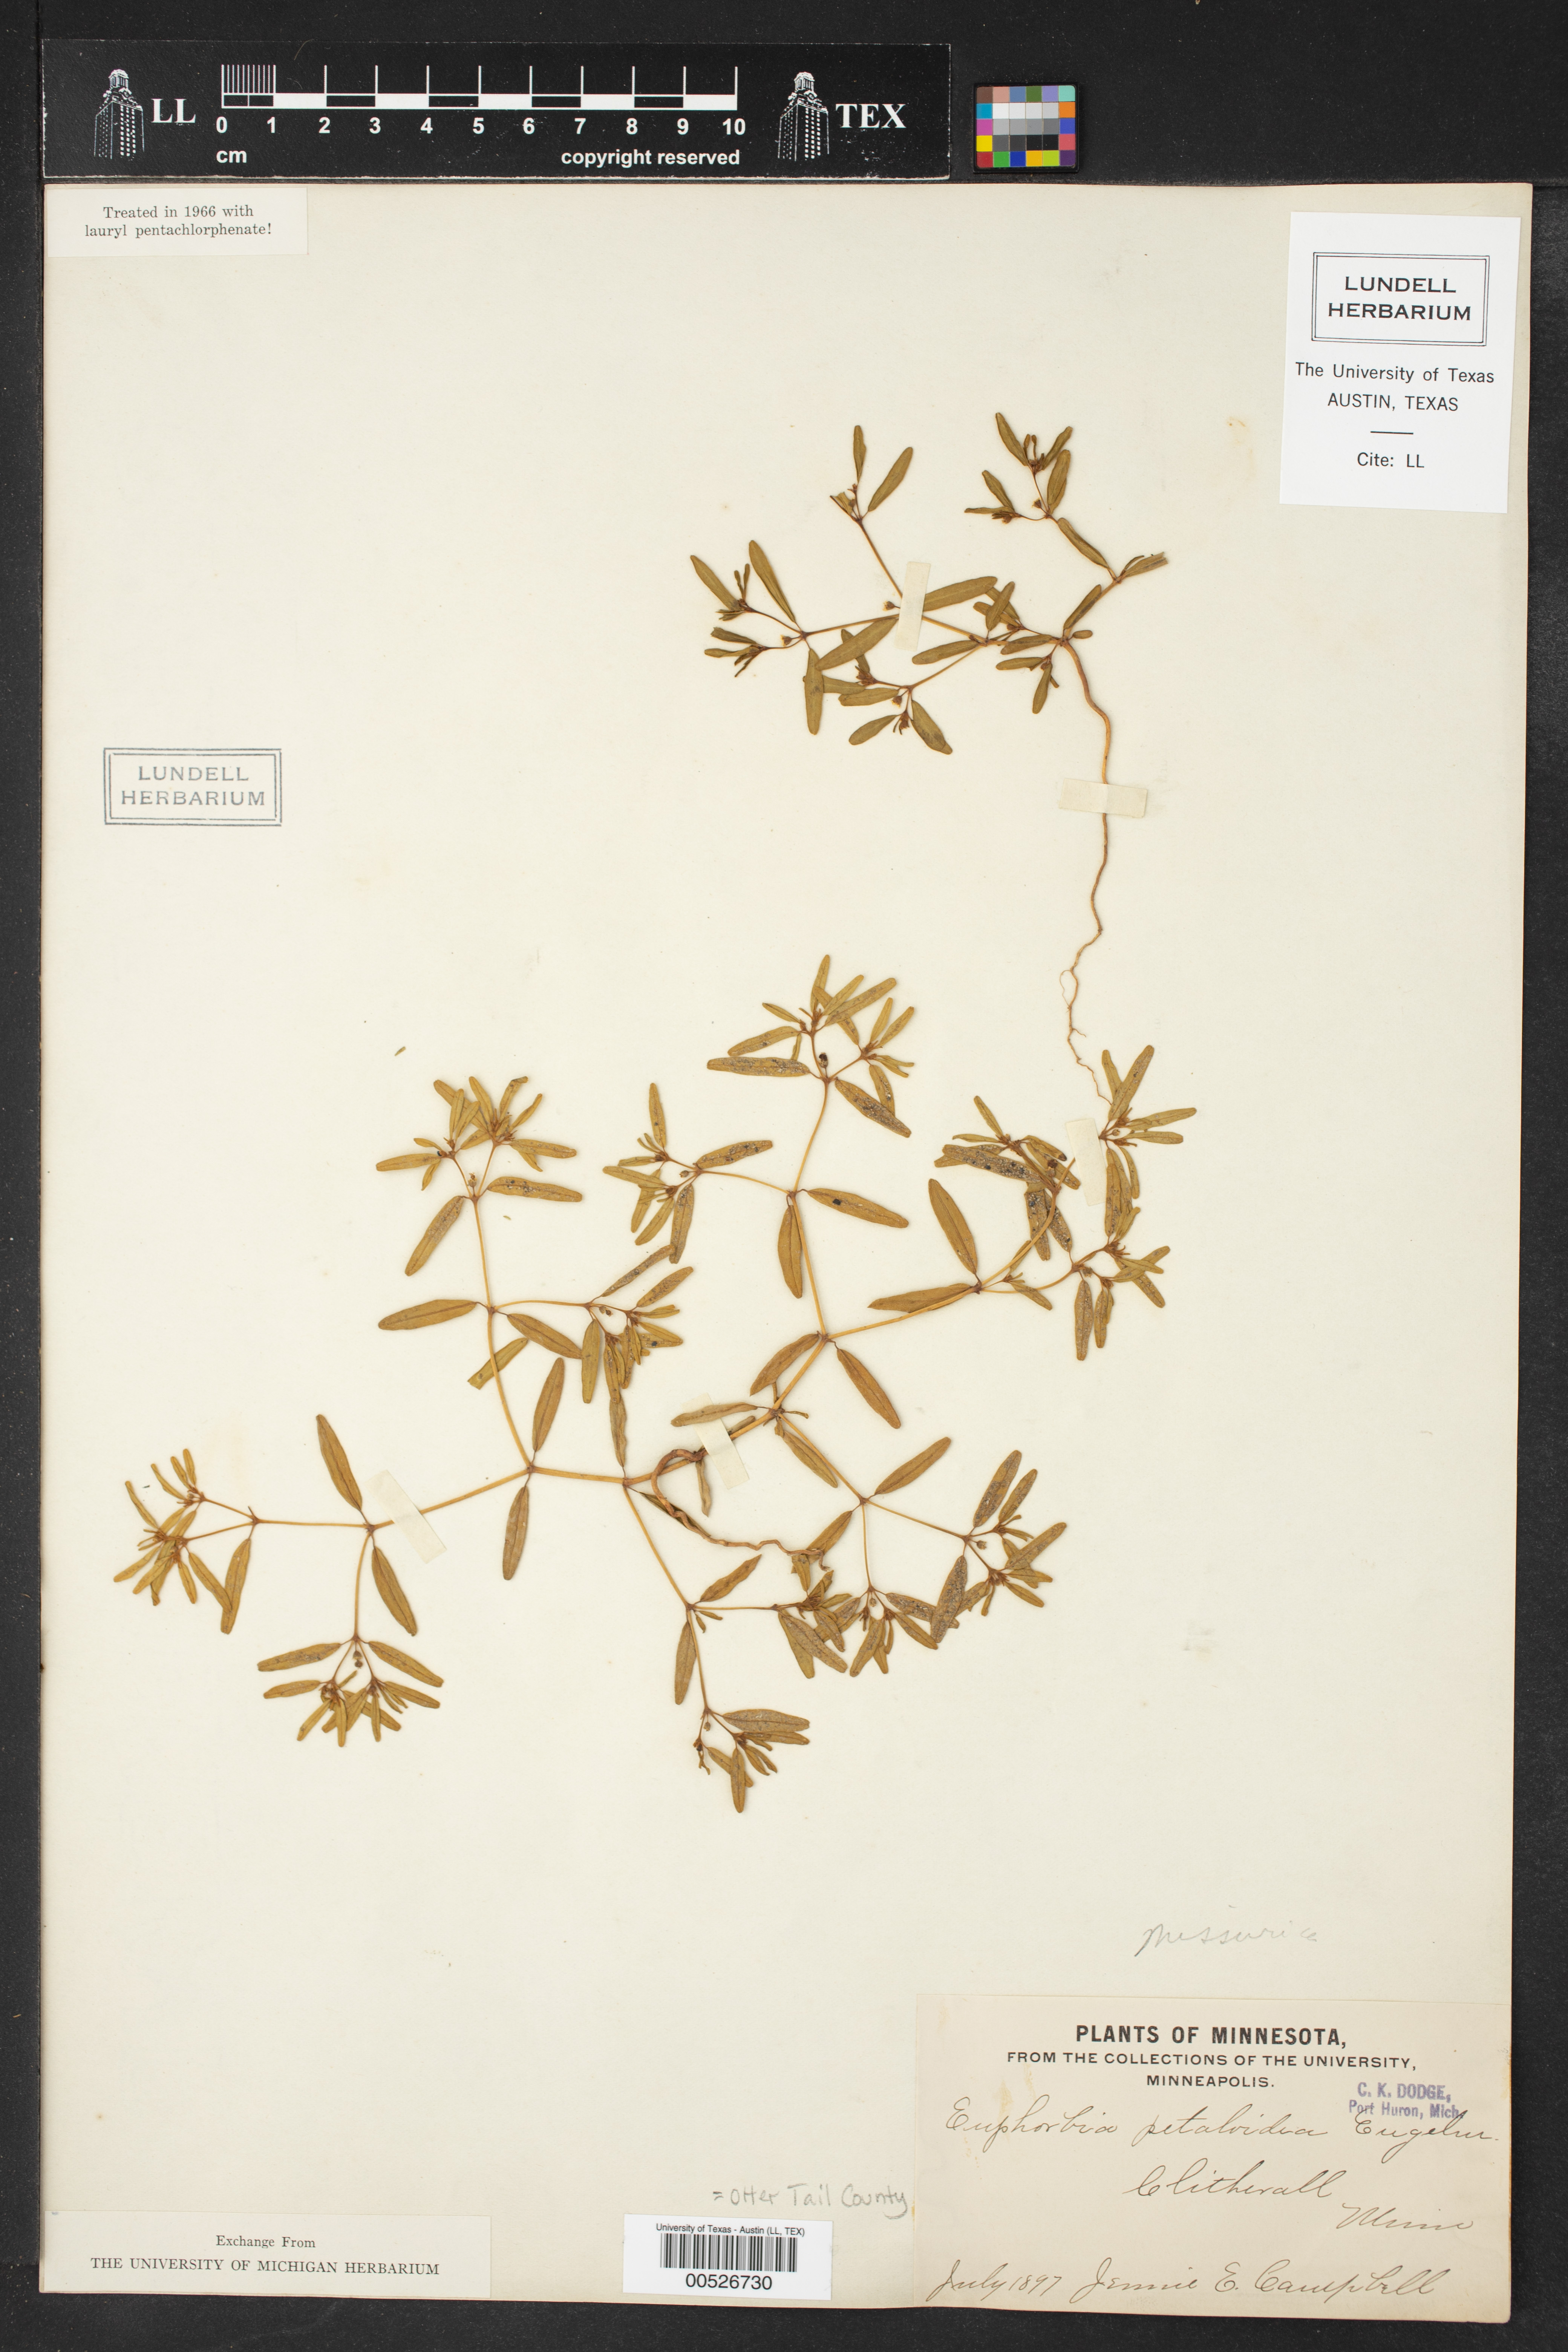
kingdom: Plantae
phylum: Tracheophyta
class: Magnoliopsida
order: Malpighiales
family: Euphorbiaceae
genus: Euphorbia
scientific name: Euphorbia missurica
